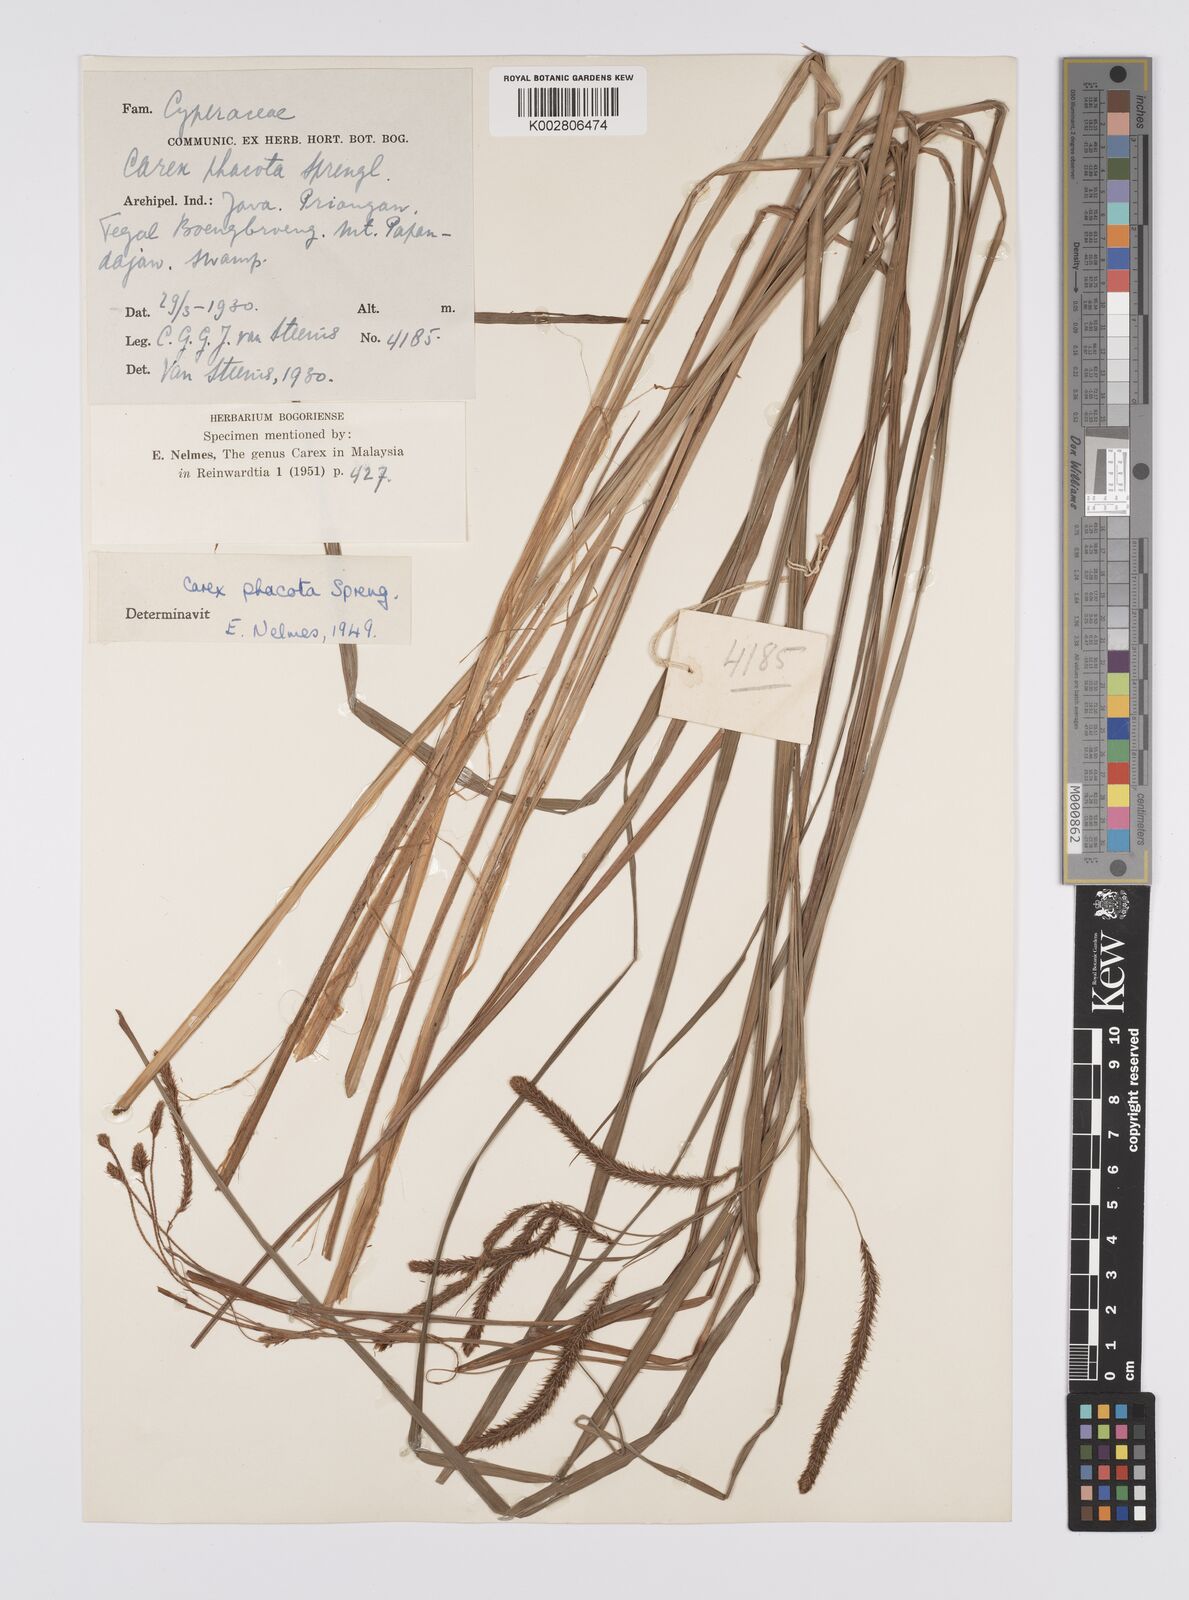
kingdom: Plantae
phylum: Tracheophyta
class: Liliopsida
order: Poales
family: Cyperaceae
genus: Carex
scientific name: Carex phacota
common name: Lakeshore sedge
